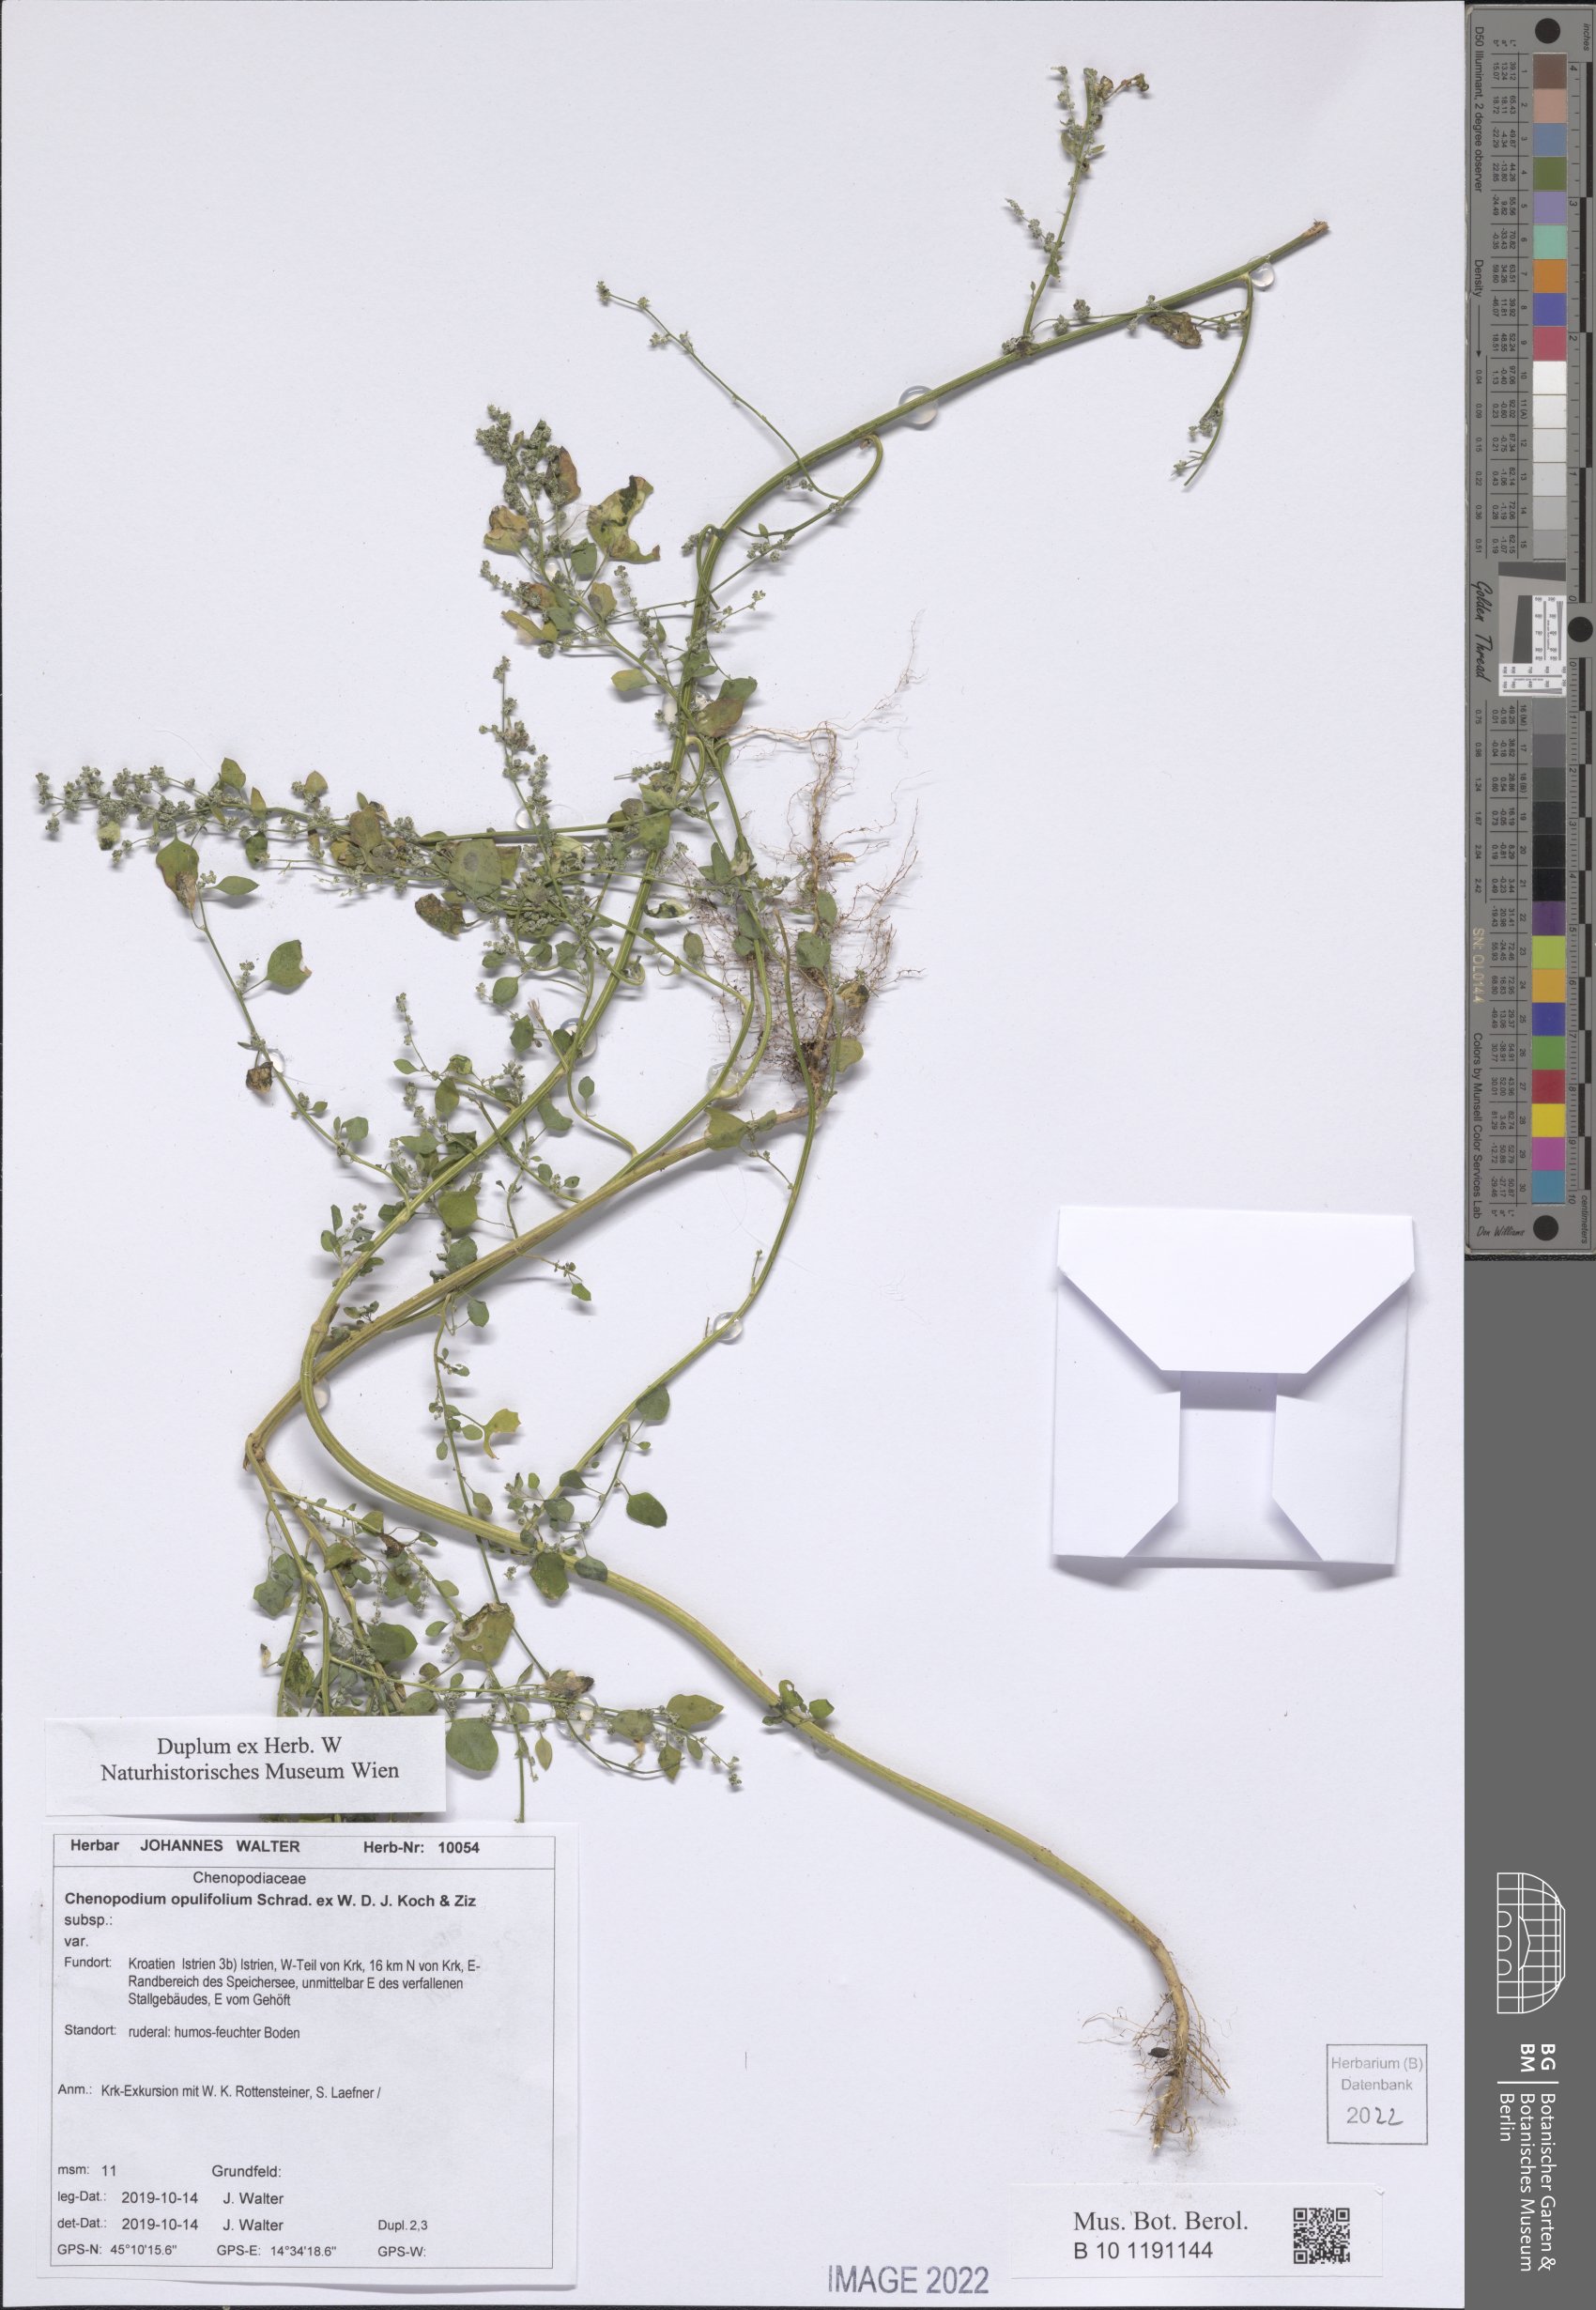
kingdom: Plantae
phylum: Tracheophyta
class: Magnoliopsida
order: Caryophyllales
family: Amaranthaceae
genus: Chenopodium
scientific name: Chenopodium opulifolium
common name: Grey goosefoot
